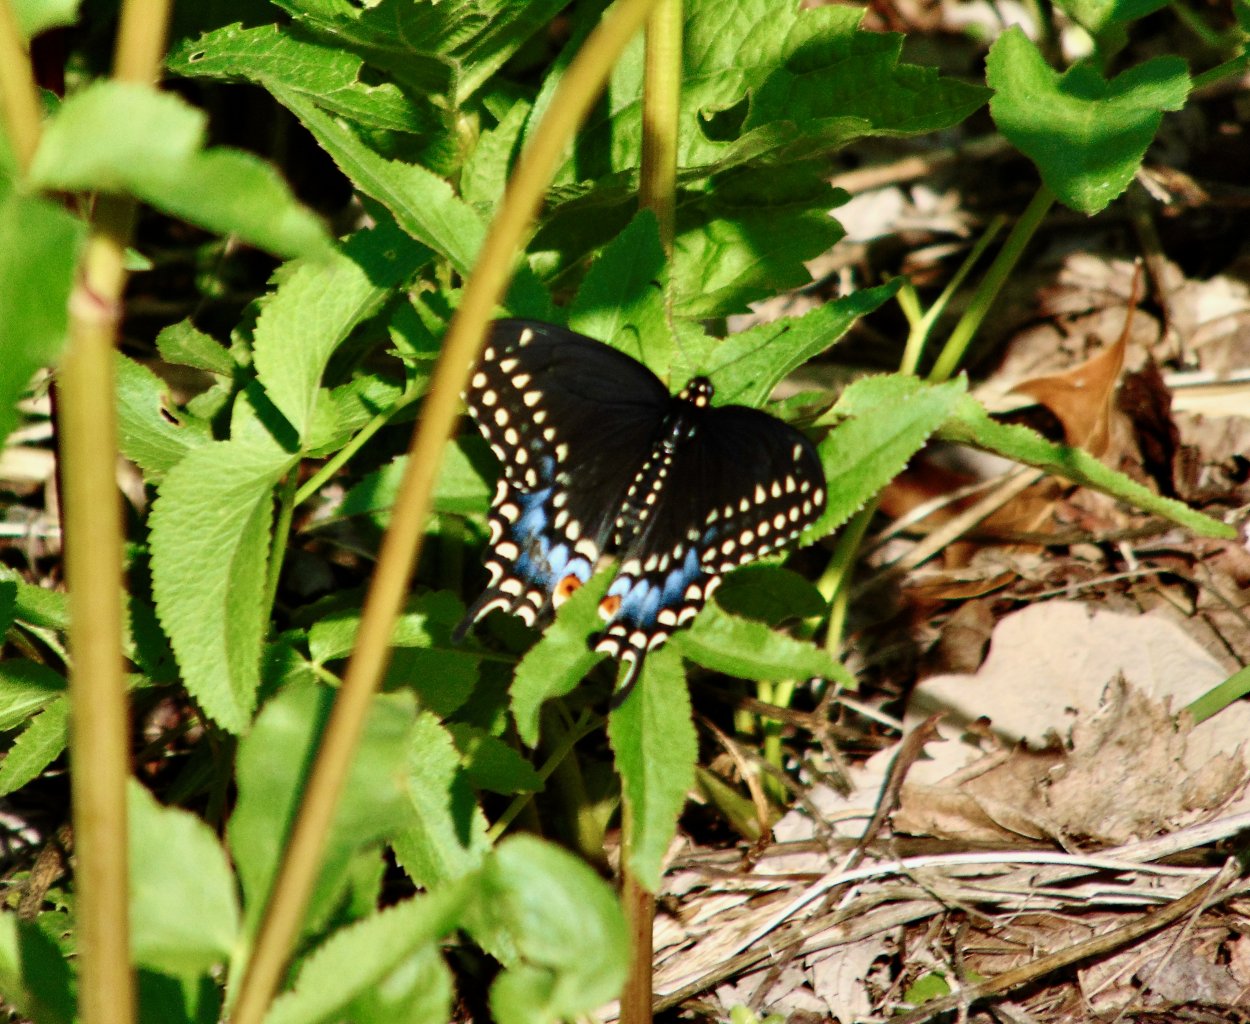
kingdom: Animalia
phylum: Arthropoda
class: Insecta
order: Lepidoptera
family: Papilionidae
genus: Papilio
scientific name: Papilio polyxenes
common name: Black Swallowtail
